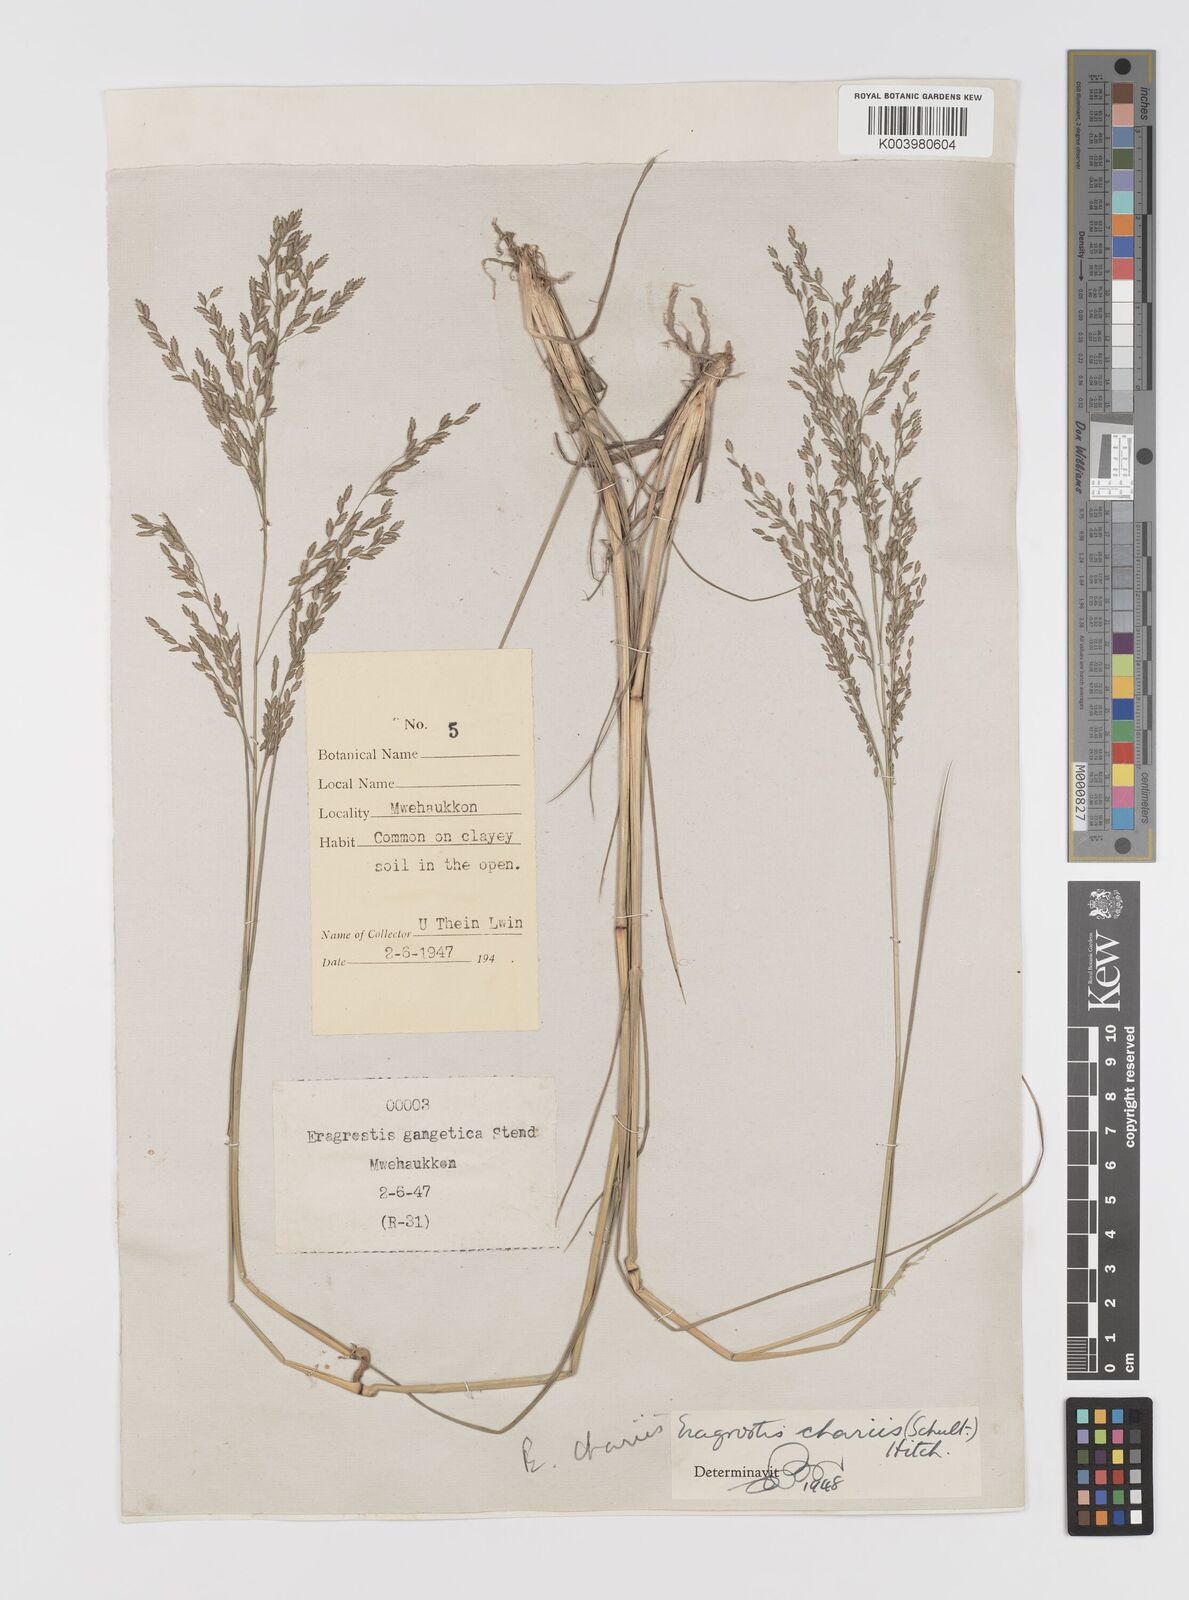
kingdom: Plantae
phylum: Tracheophyta
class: Liliopsida
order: Poales
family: Poaceae
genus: Eragrostis
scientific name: Eragrostis atrovirens
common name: Thalia lovegrass
